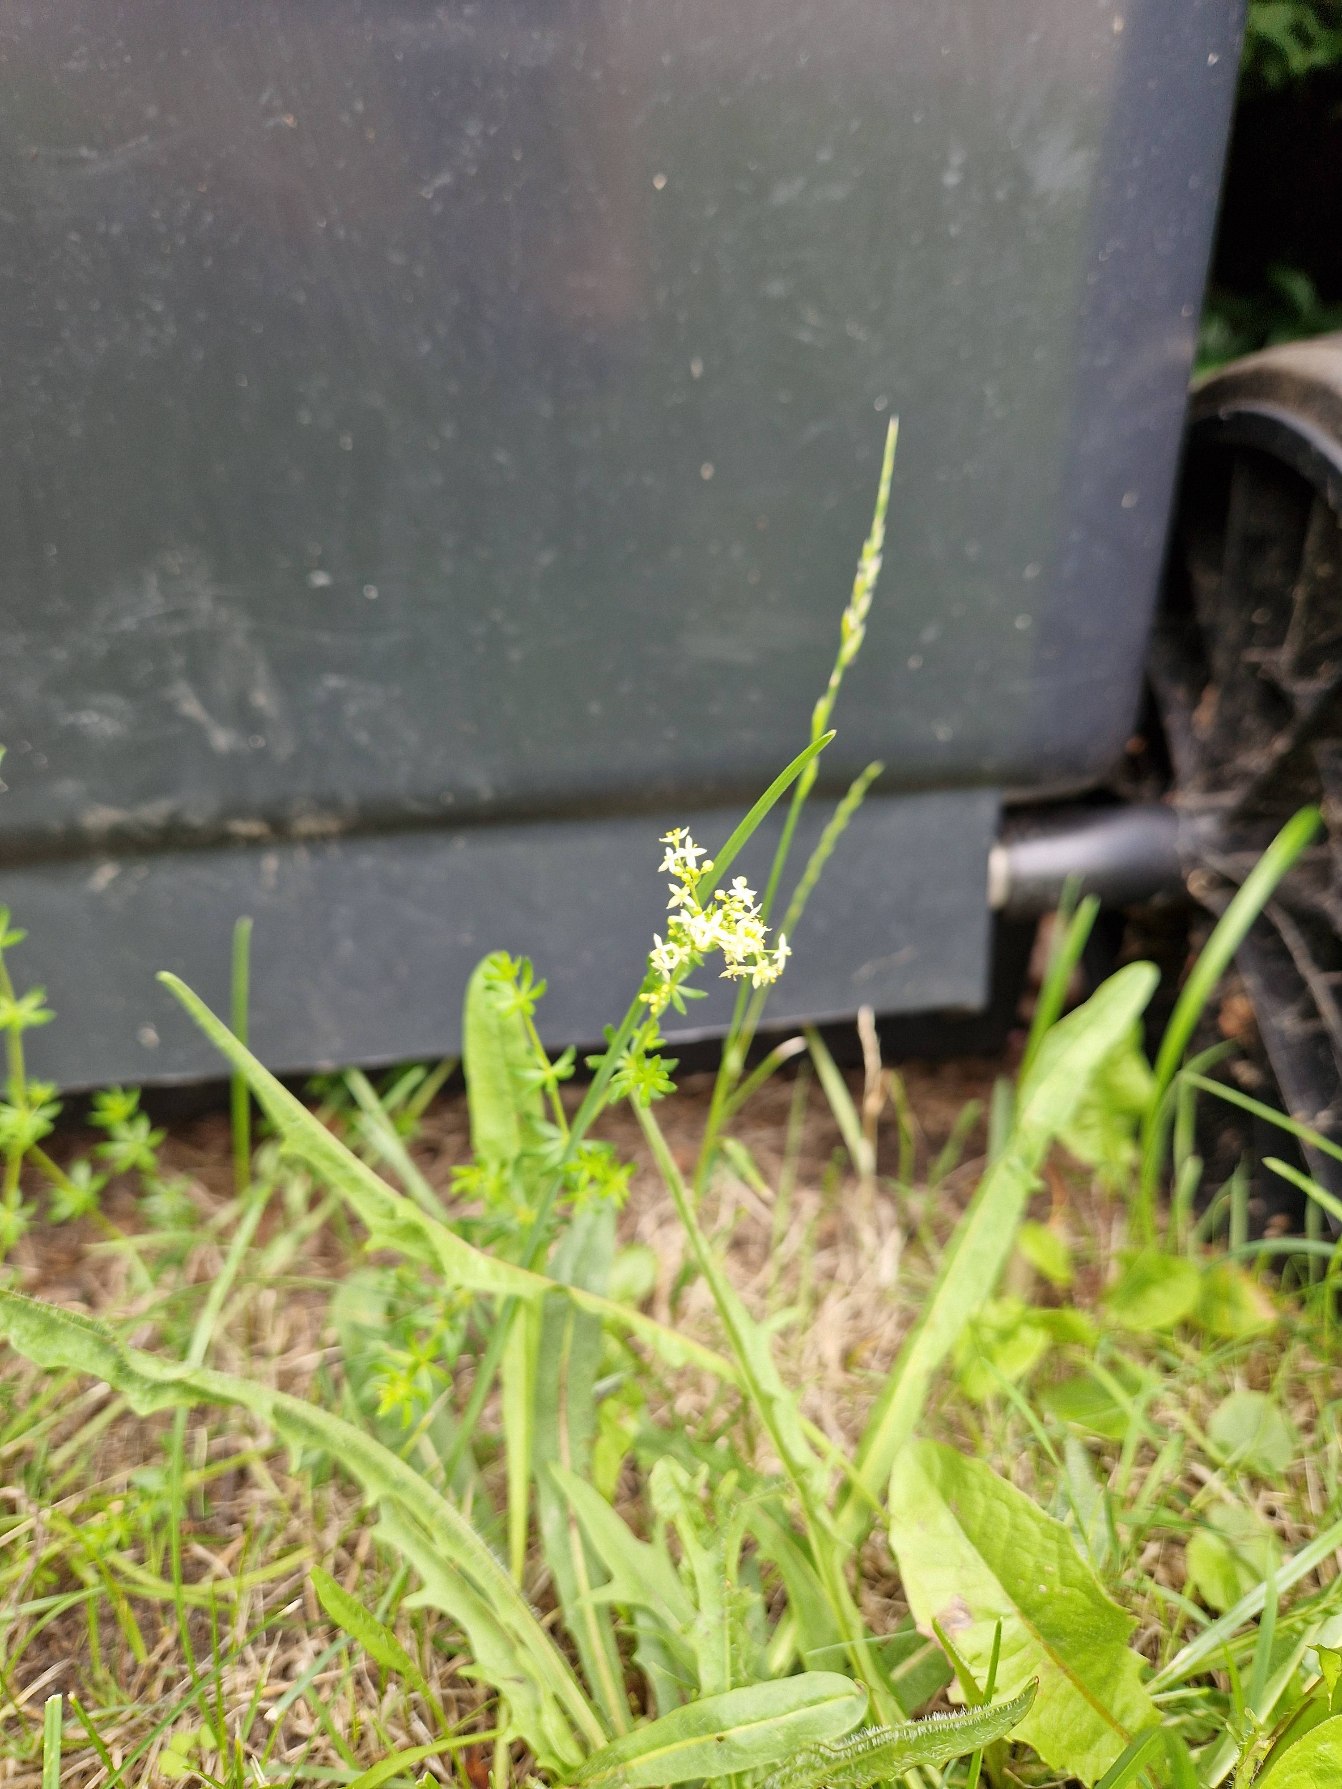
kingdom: Plantae
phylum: Tracheophyta
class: Magnoliopsida
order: Gentianales
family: Rubiaceae
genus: Galium
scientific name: Galium mollugo
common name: Hvid snerre
